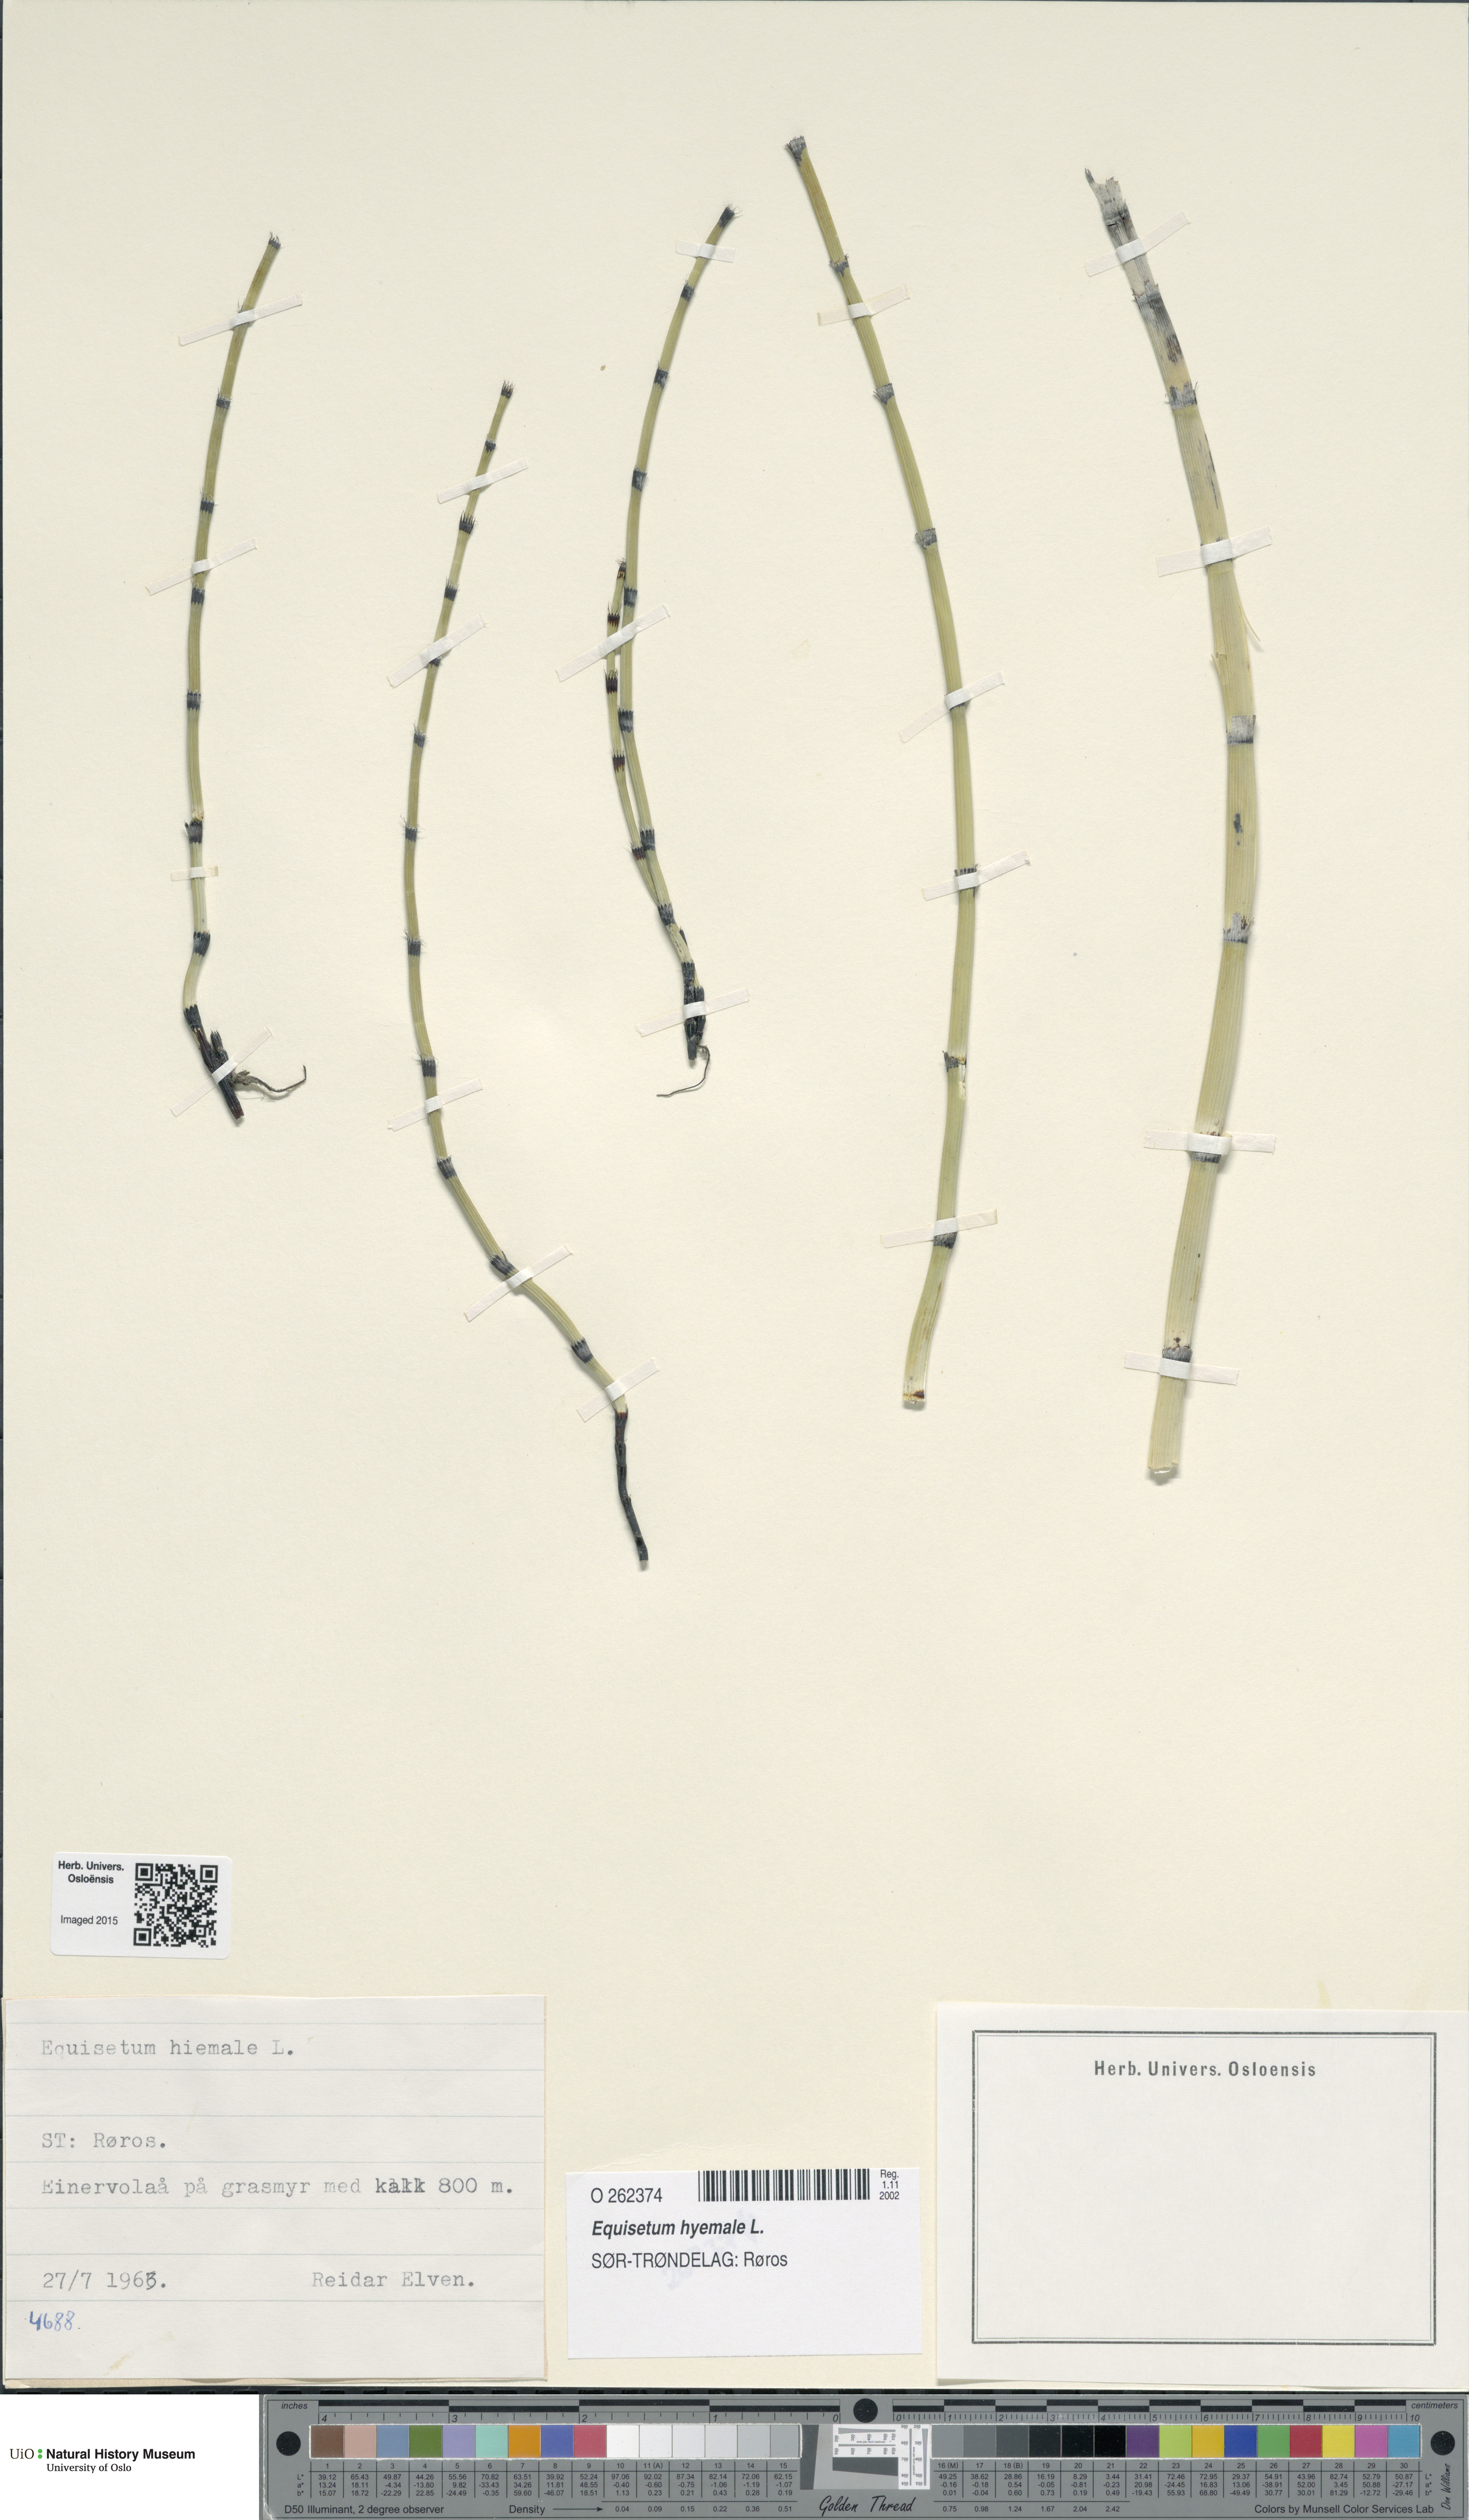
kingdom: Plantae
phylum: Tracheophyta
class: Polypodiopsida
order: Equisetales
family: Equisetaceae
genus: Equisetum
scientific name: Equisetum hyemale
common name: Rough horsetail
